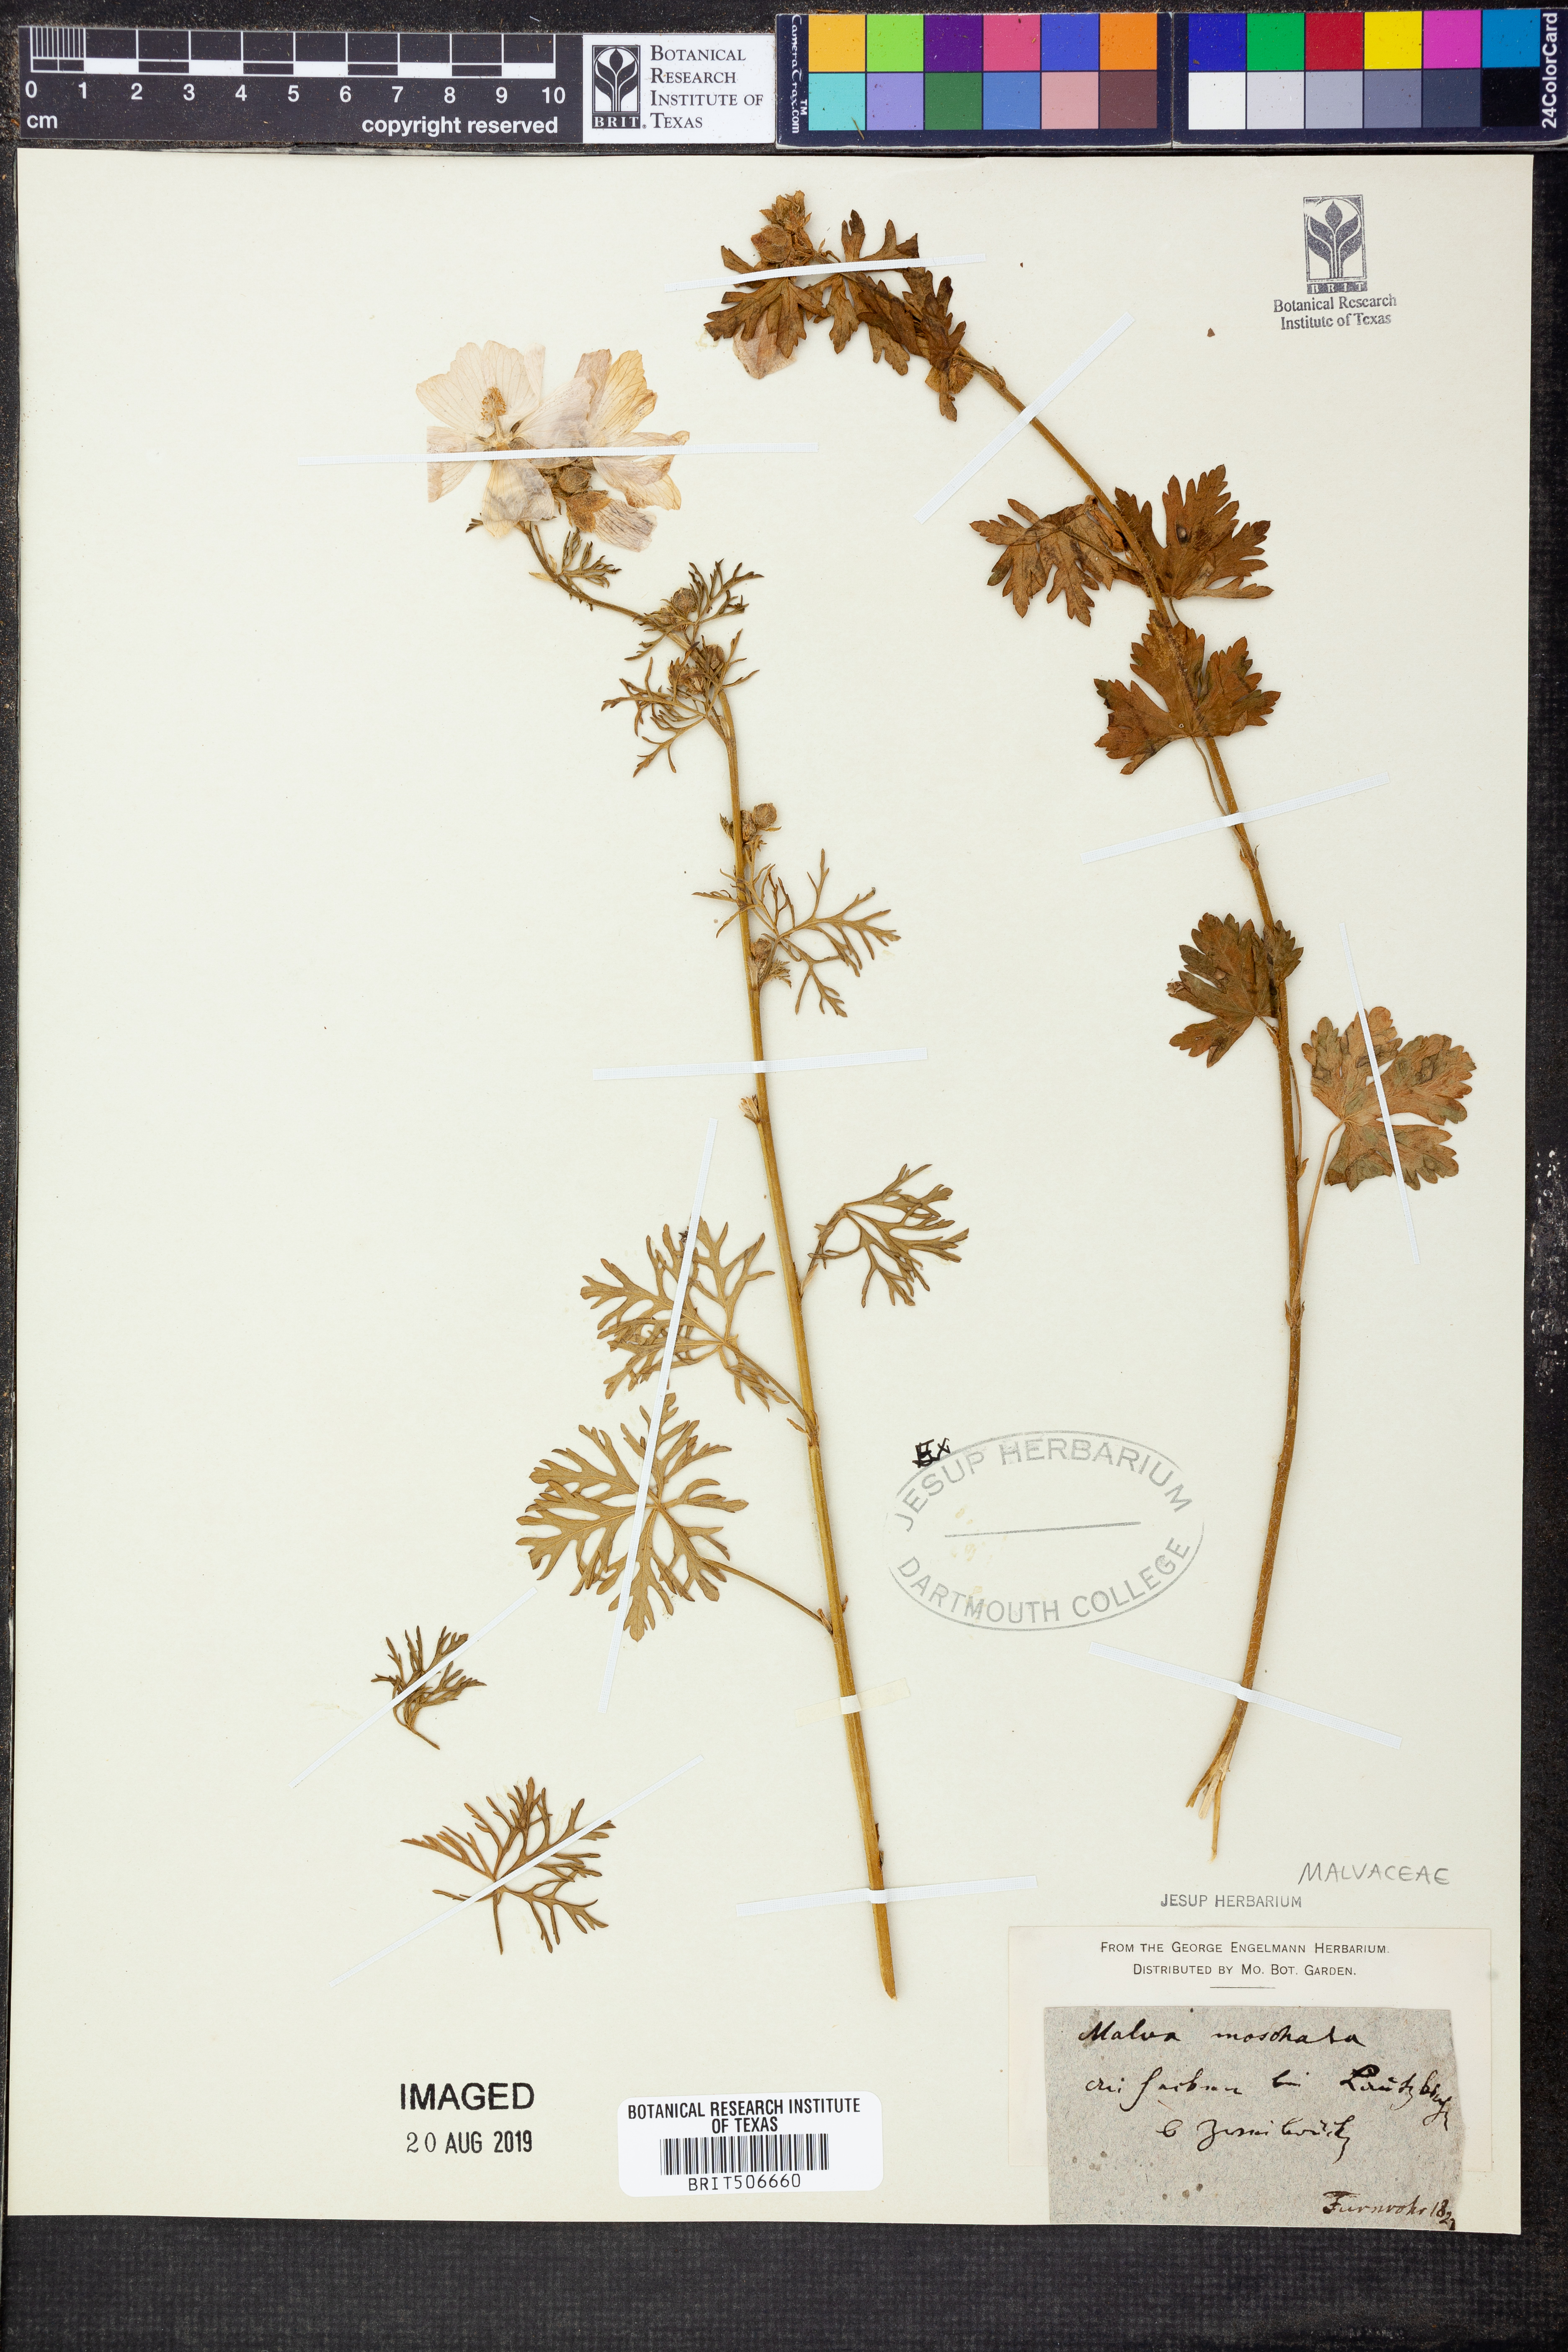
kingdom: Plantae
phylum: Tracheophyta
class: Magnoliopsida
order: Malvales
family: Malvaceae
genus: Malva
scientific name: Malva moschata
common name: Musk mallow
